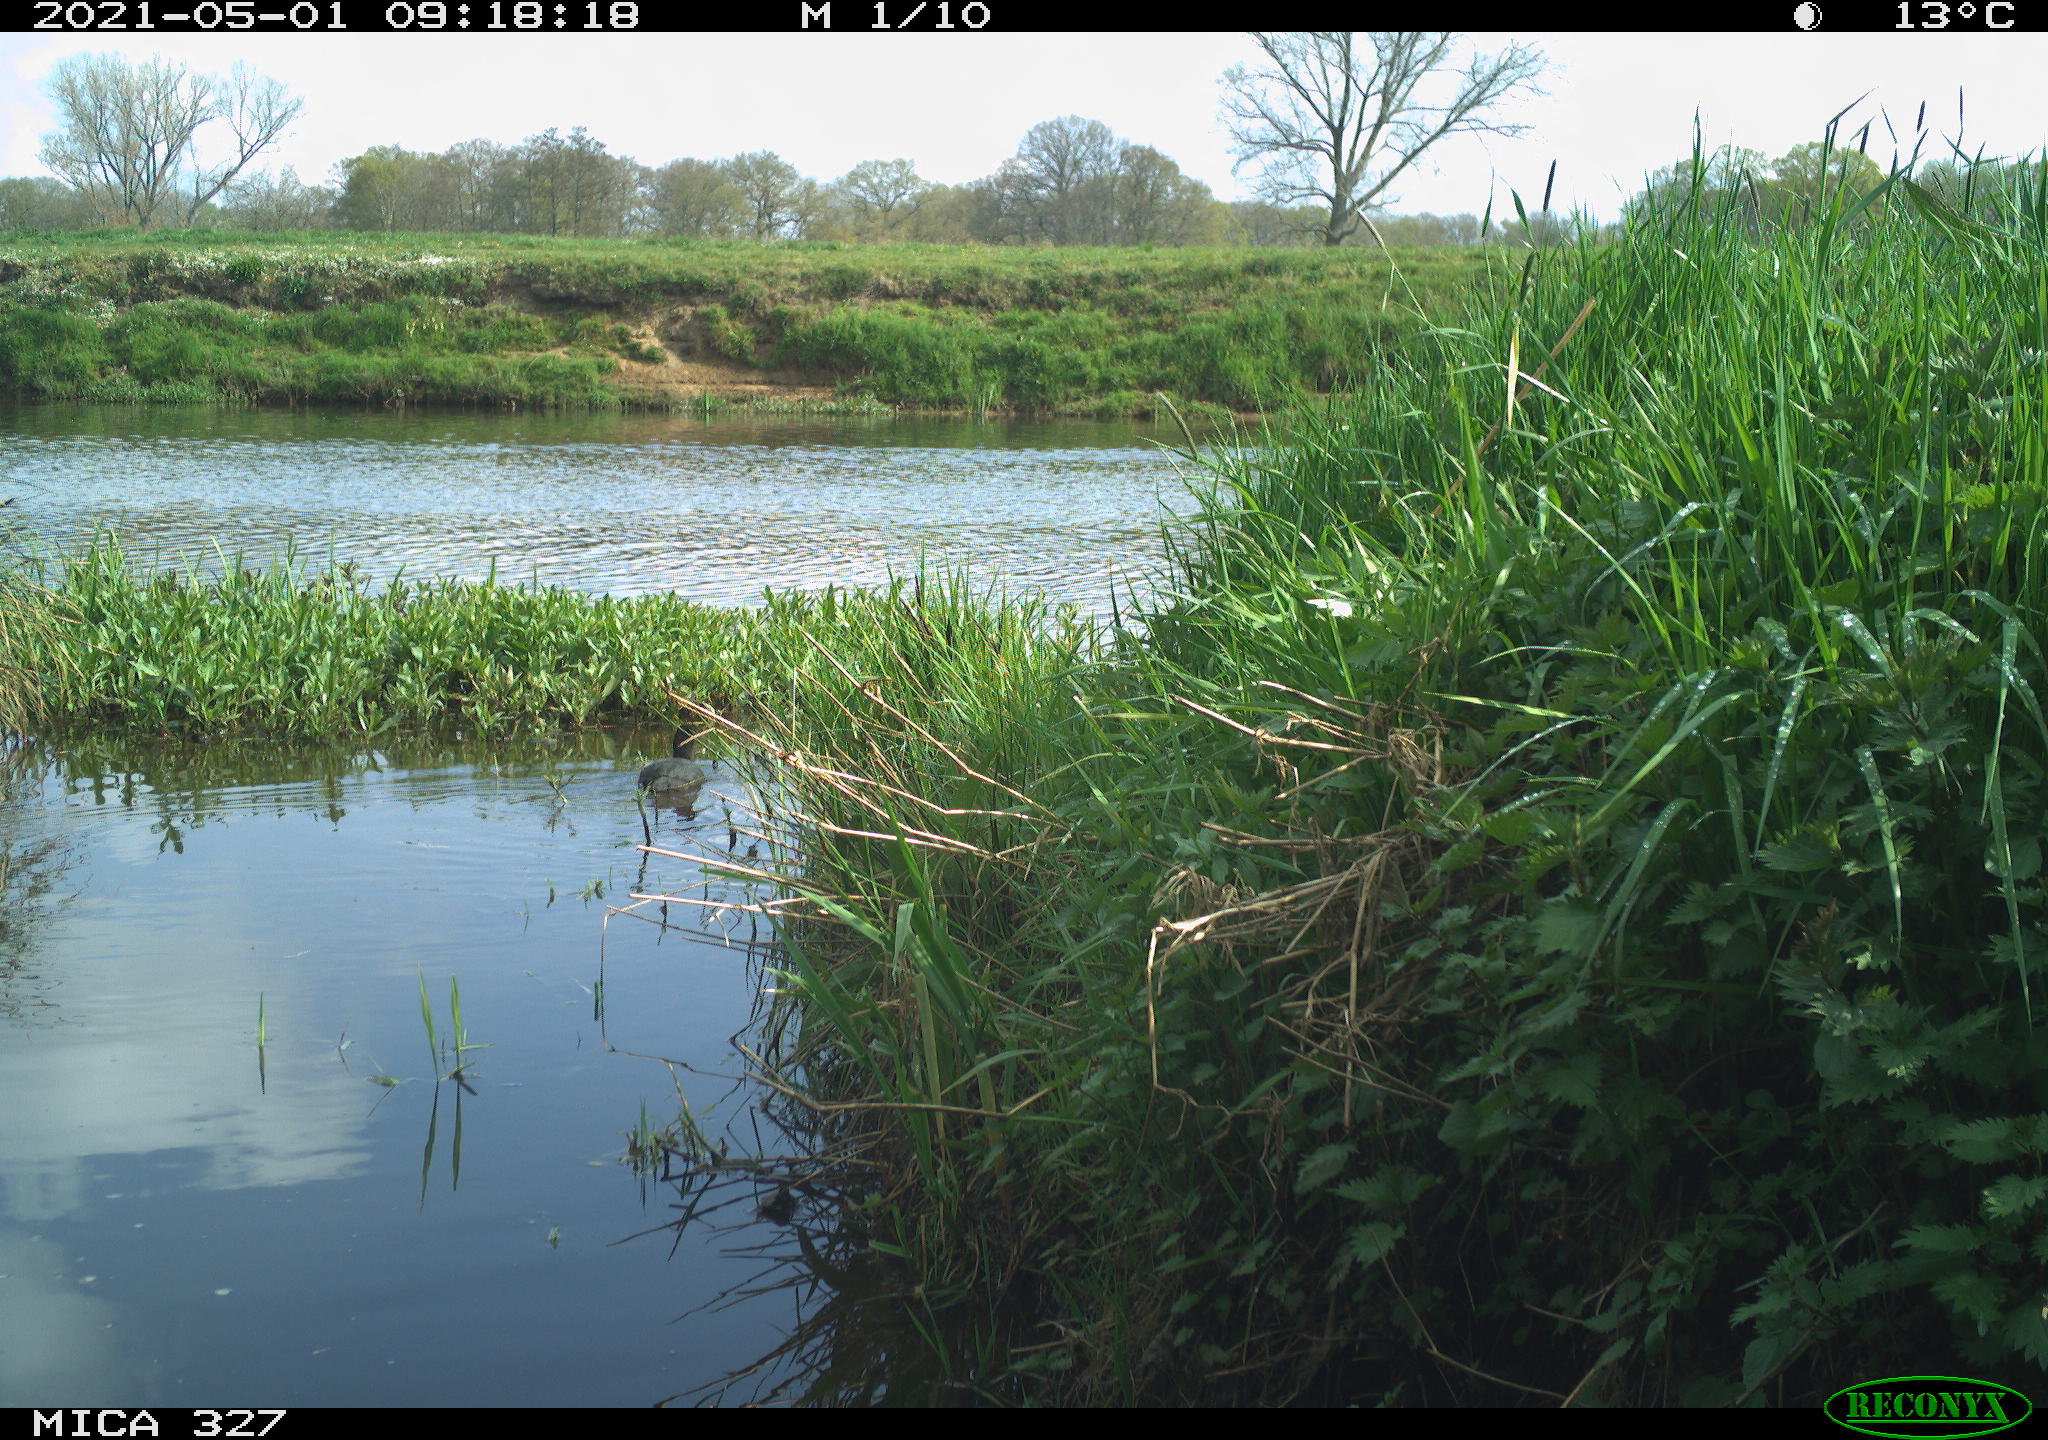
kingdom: Animalia
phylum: Chordata
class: Aves
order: Gruiformes
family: Rallidae
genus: Fulica
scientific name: Fulica atra
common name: Eurasian coot
